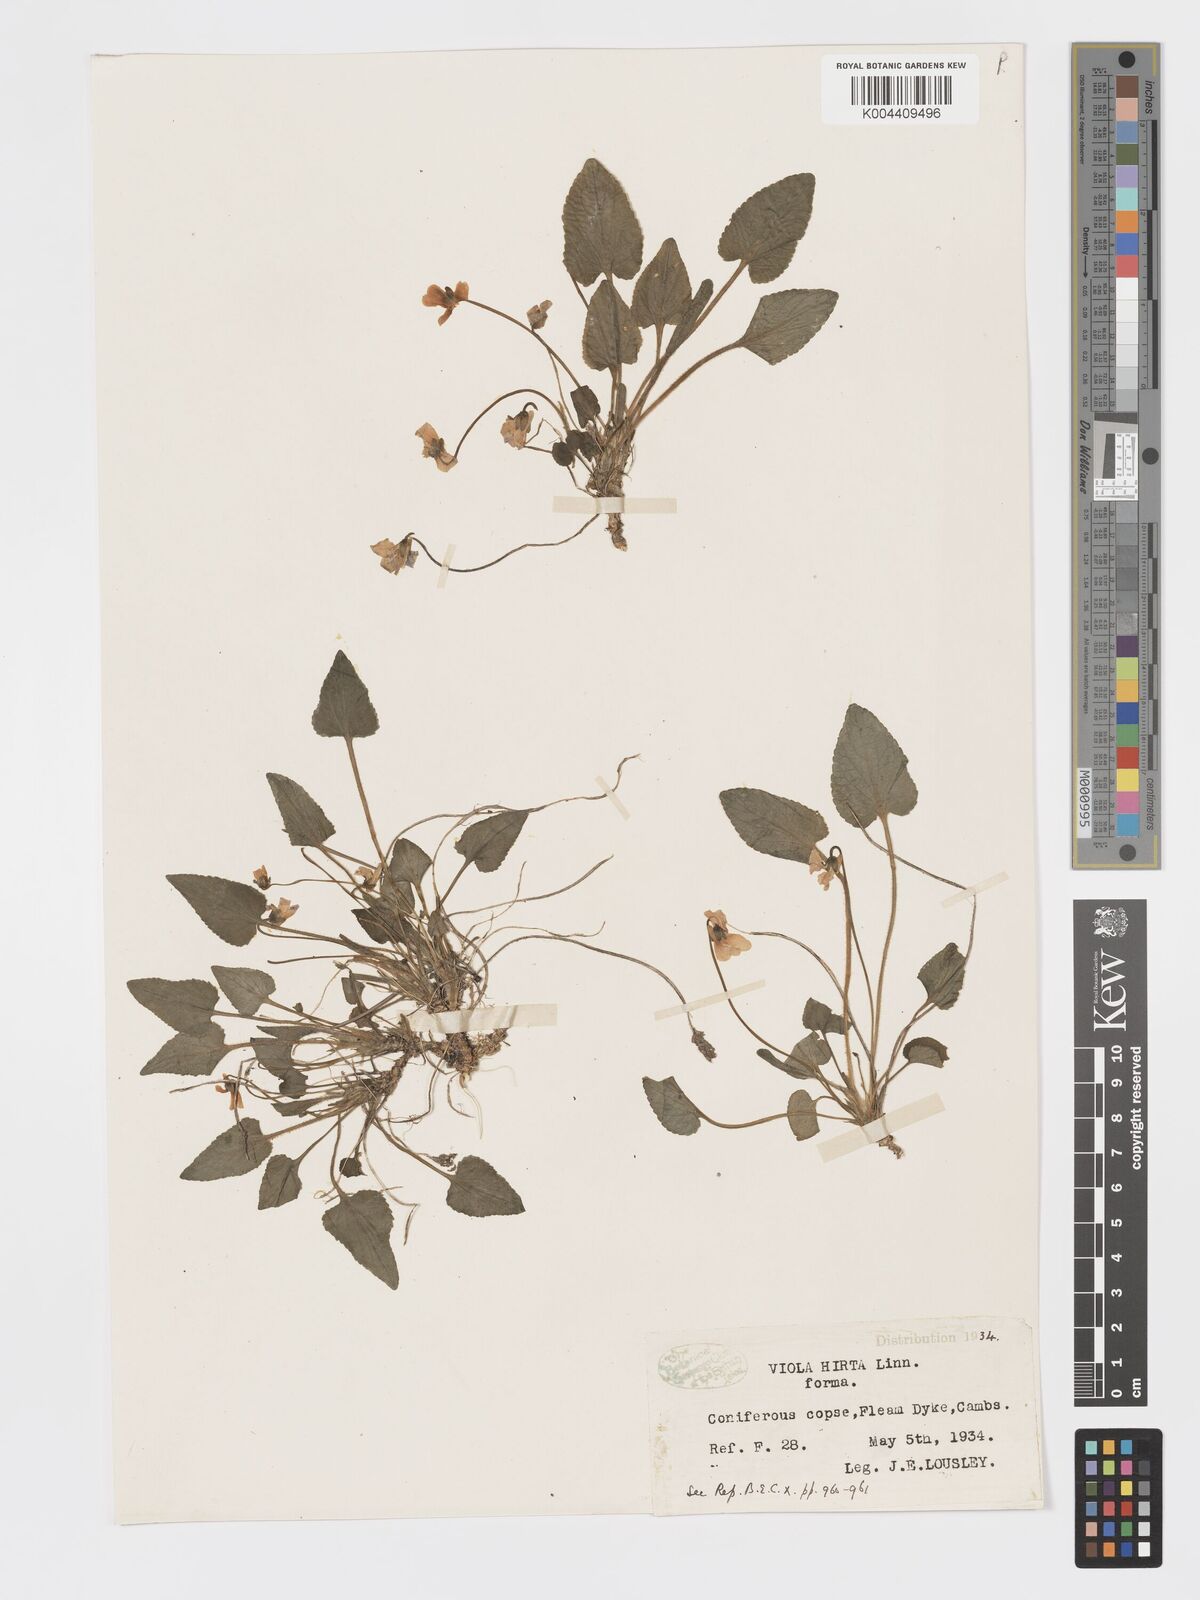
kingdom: Plantae
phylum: Tracheophyta
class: Magnoliopsida
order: Malpighiales
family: Violaceae
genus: Viola
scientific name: Viola
